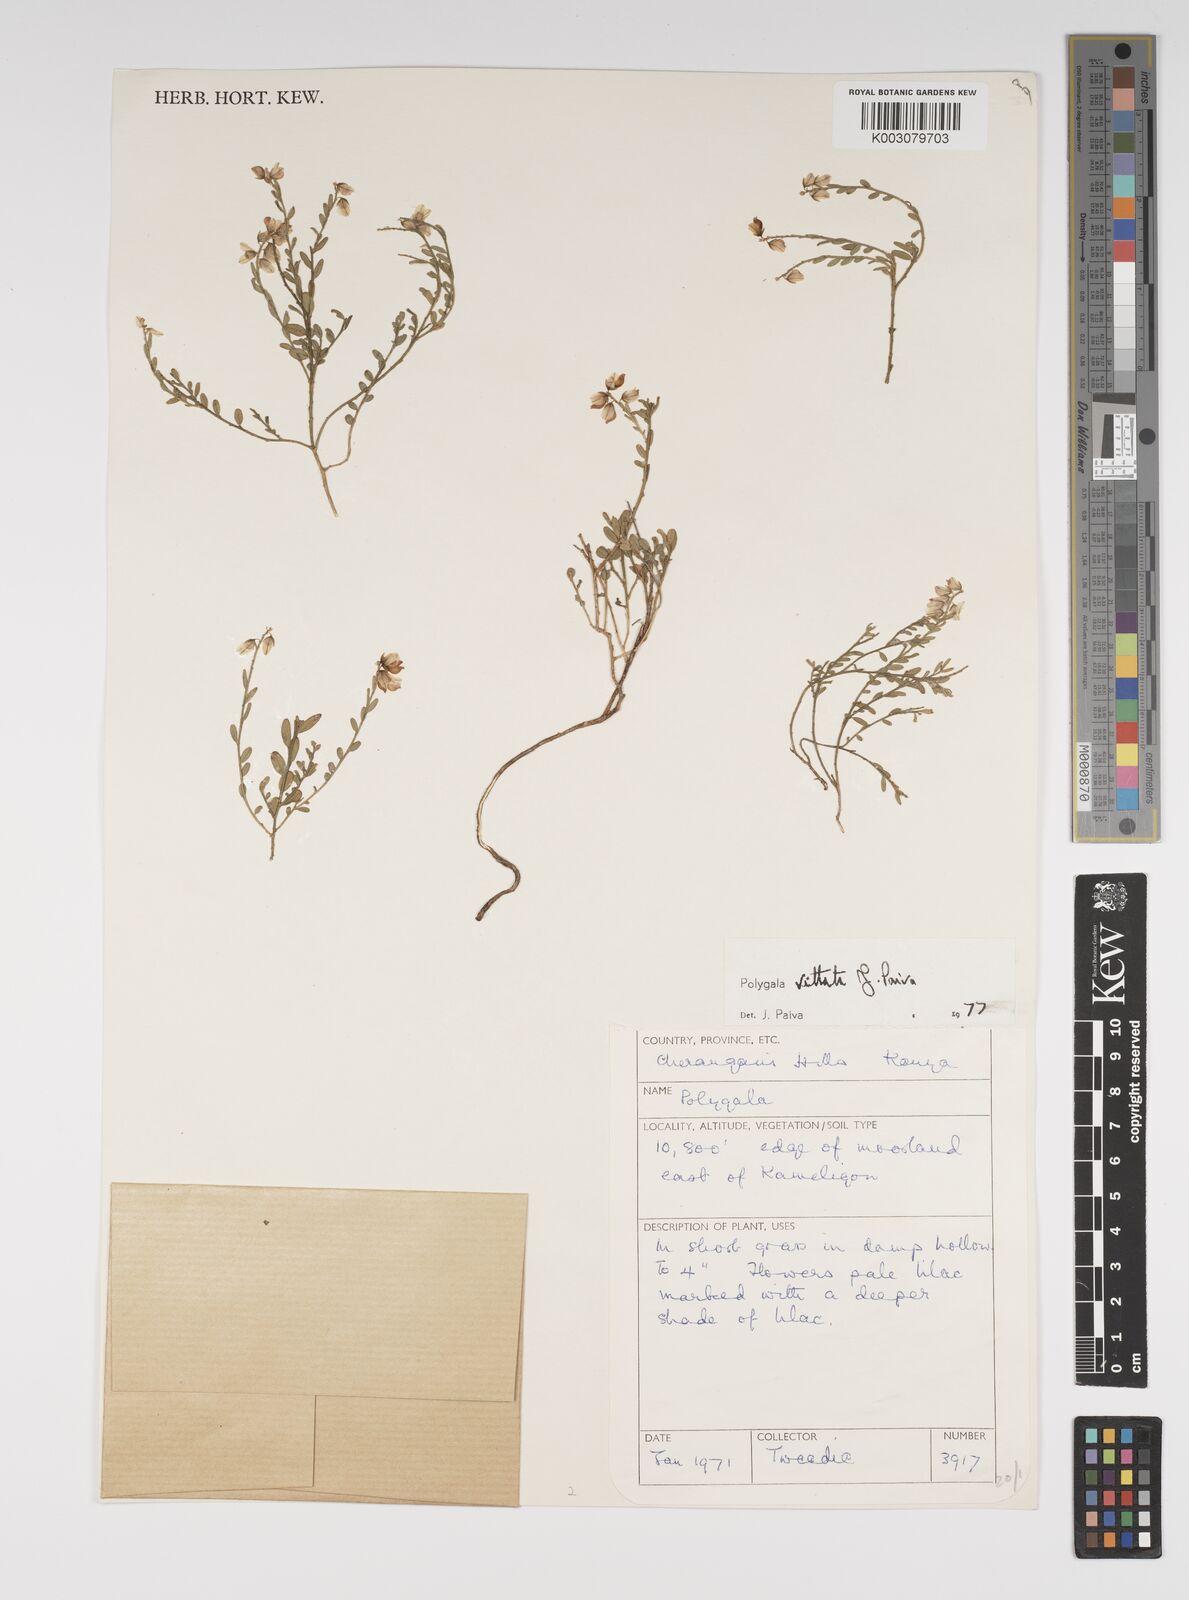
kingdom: Plantae
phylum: Tracheophyta
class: Magnoliopsida
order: Fabales
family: Polygalaceae
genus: Polygala
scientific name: Polygala vittata
